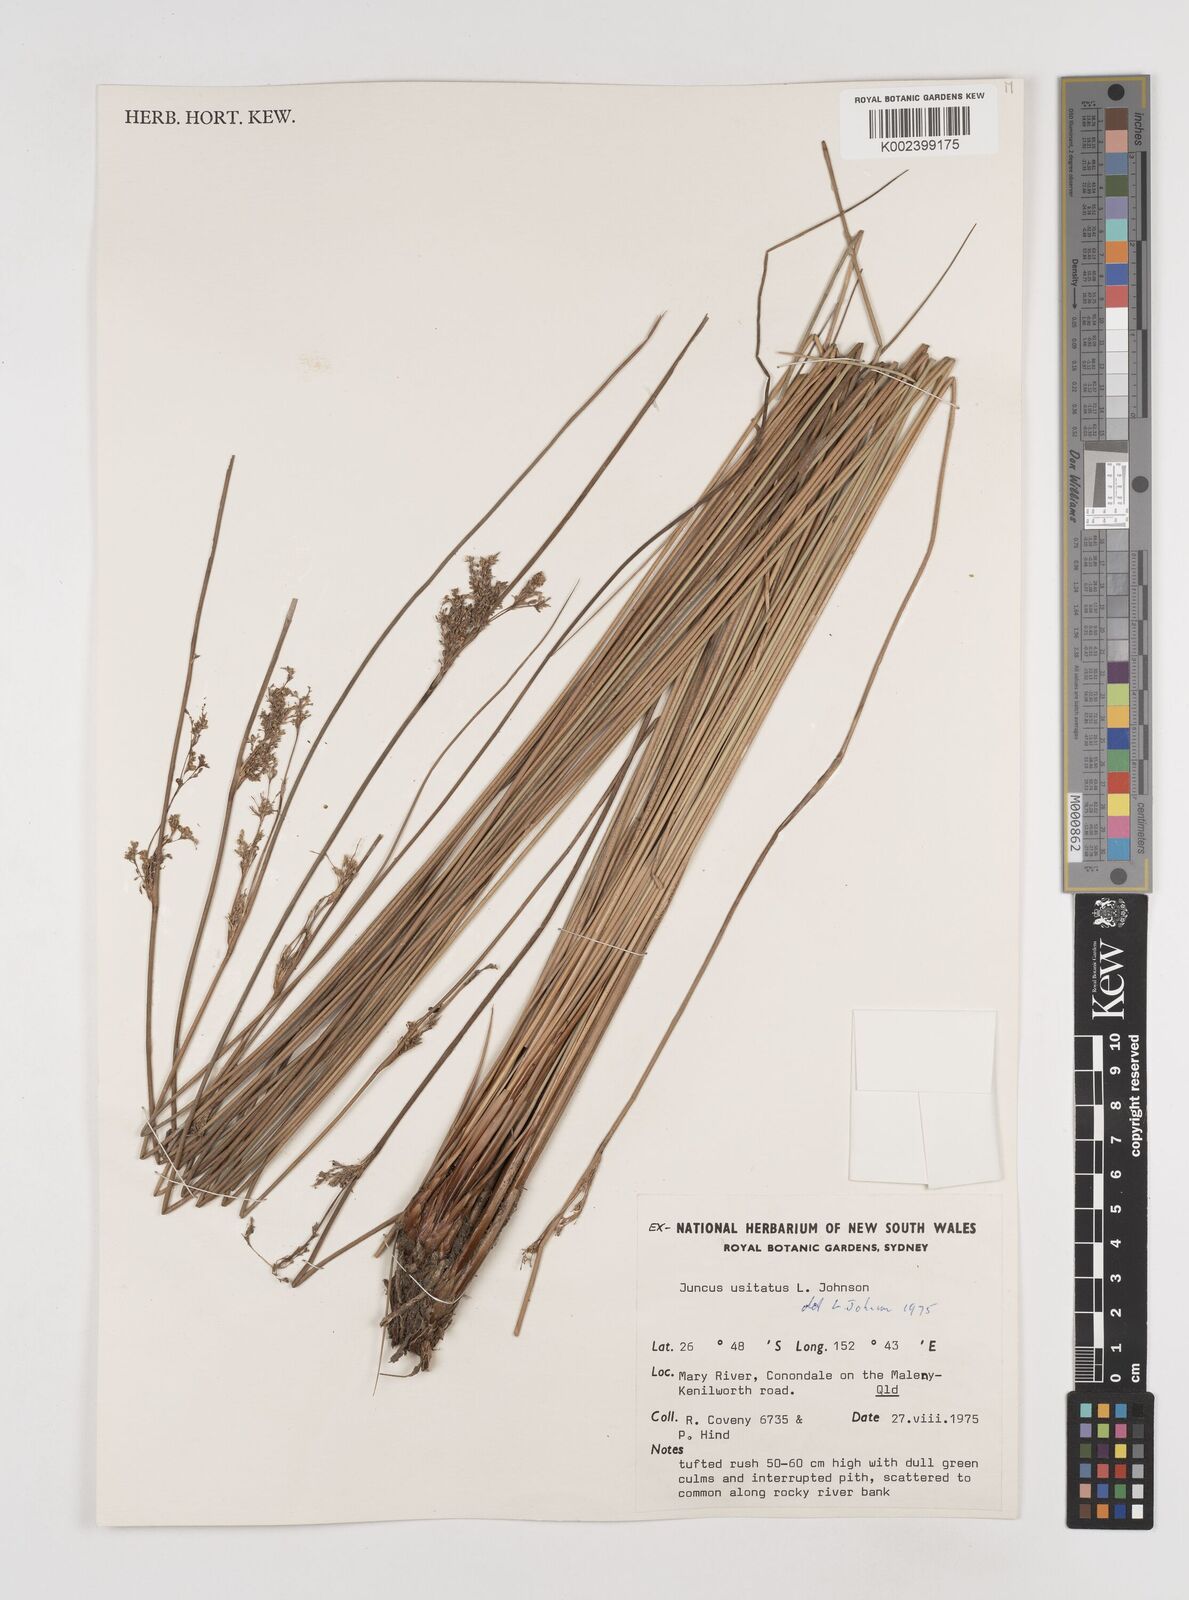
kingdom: Plantae
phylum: Tracheophyta
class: Liliopsida
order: Poales
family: Juncaceae
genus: Juncus
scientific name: Juncus usitatus
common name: Rush
